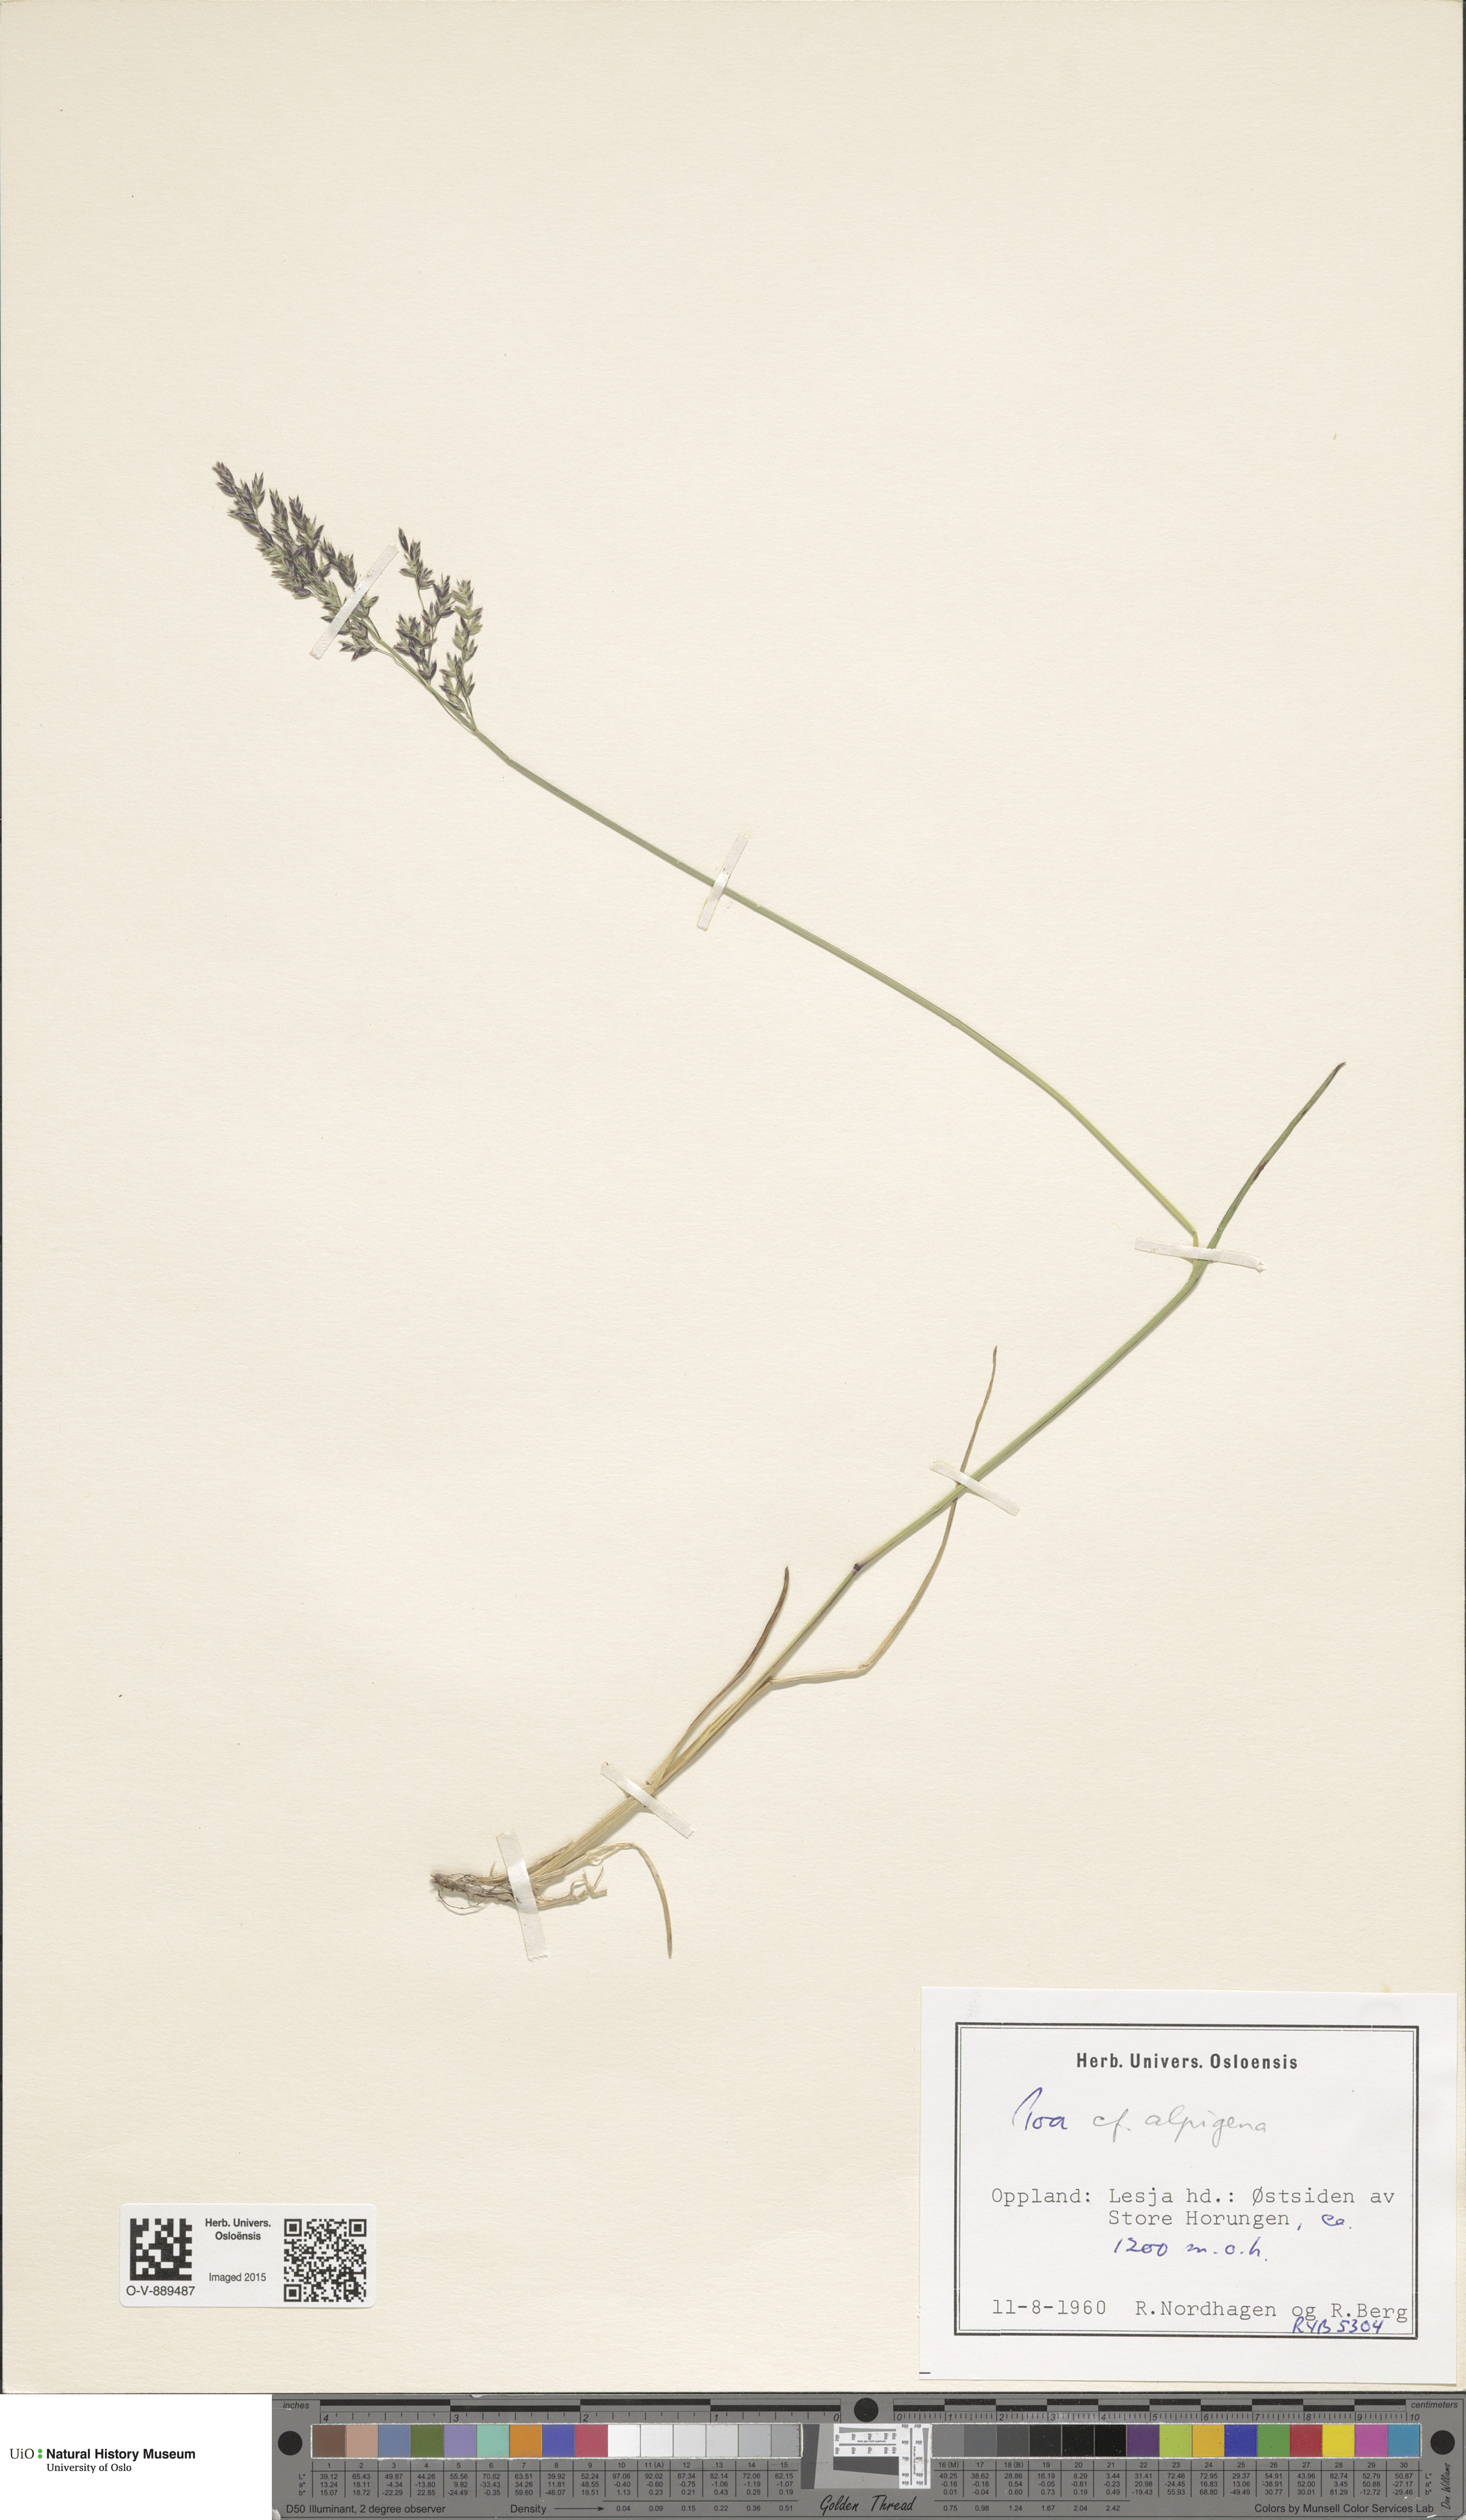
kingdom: Plantae
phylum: Tracheophyta
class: Liliopsida
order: Poales
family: Poaceae
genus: Poa
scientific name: Poa alpigena
